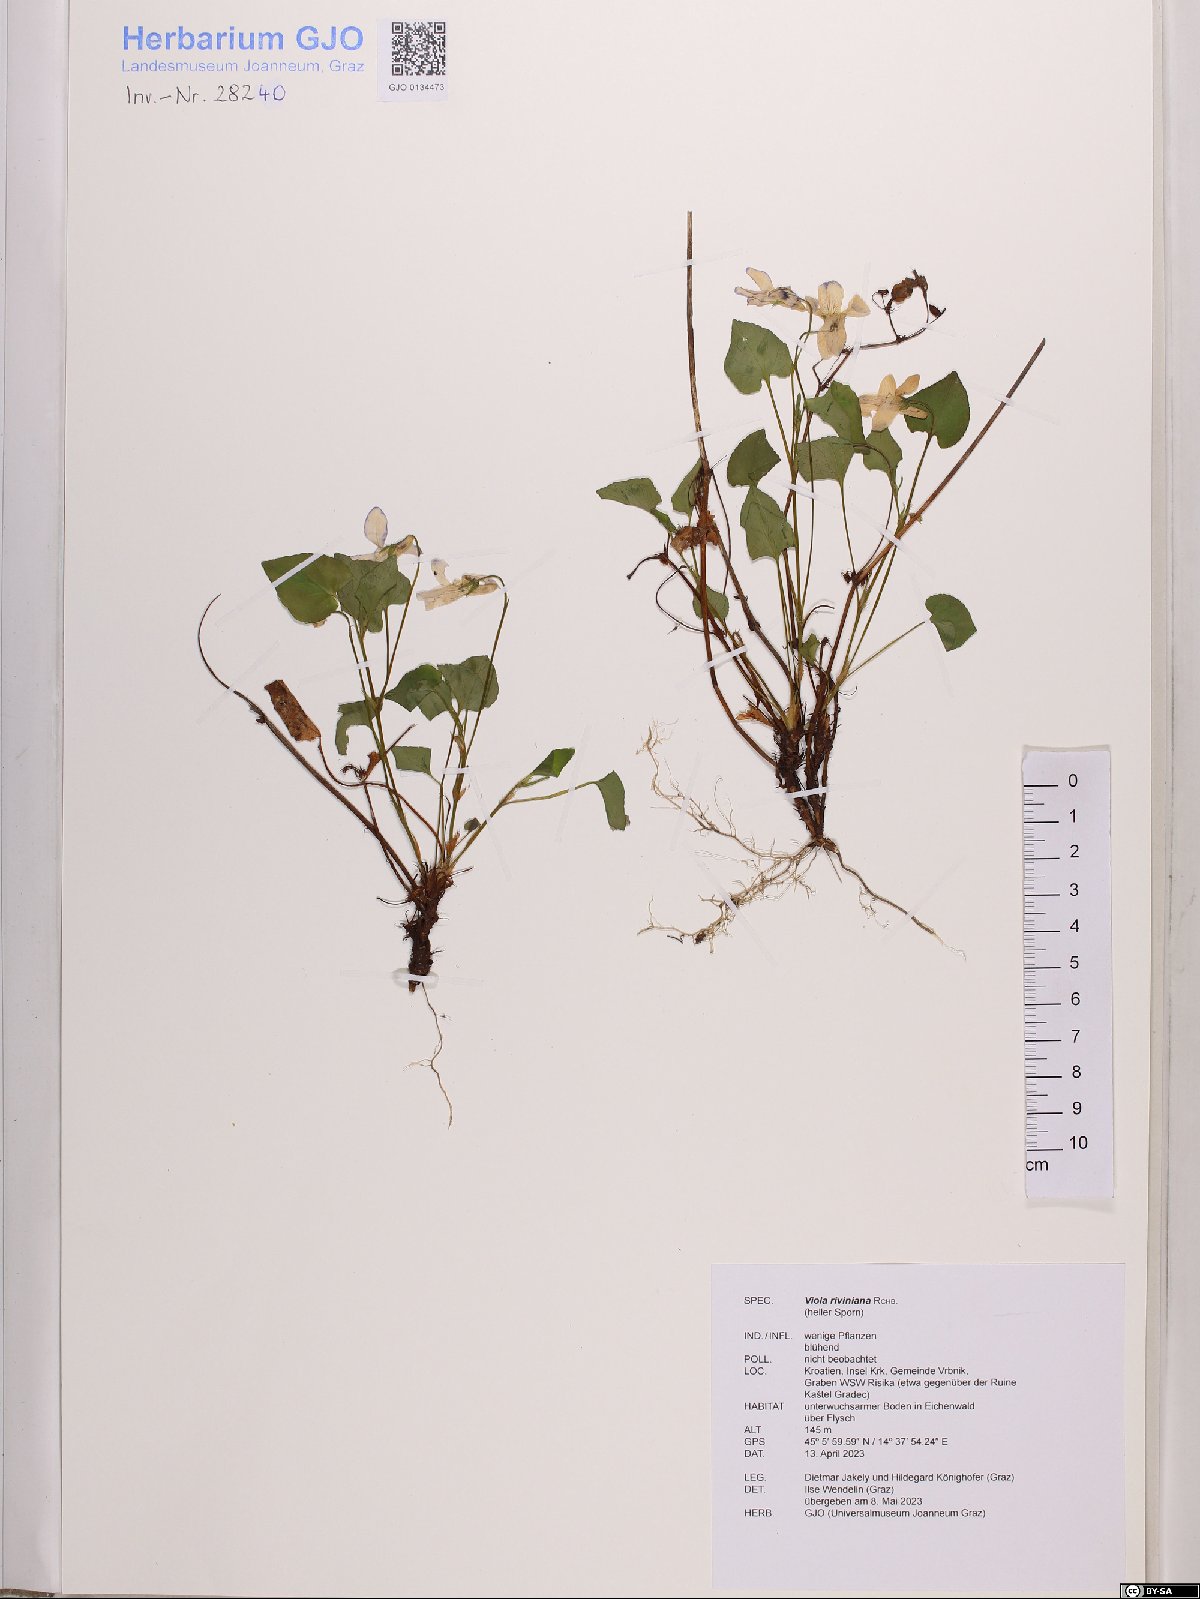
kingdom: Plantae
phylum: Tracheophyta
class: Magnoliopsida
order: Malpighiales
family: Violaceae
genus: Viola
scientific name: Viola riviniana
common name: Common dog-violet
